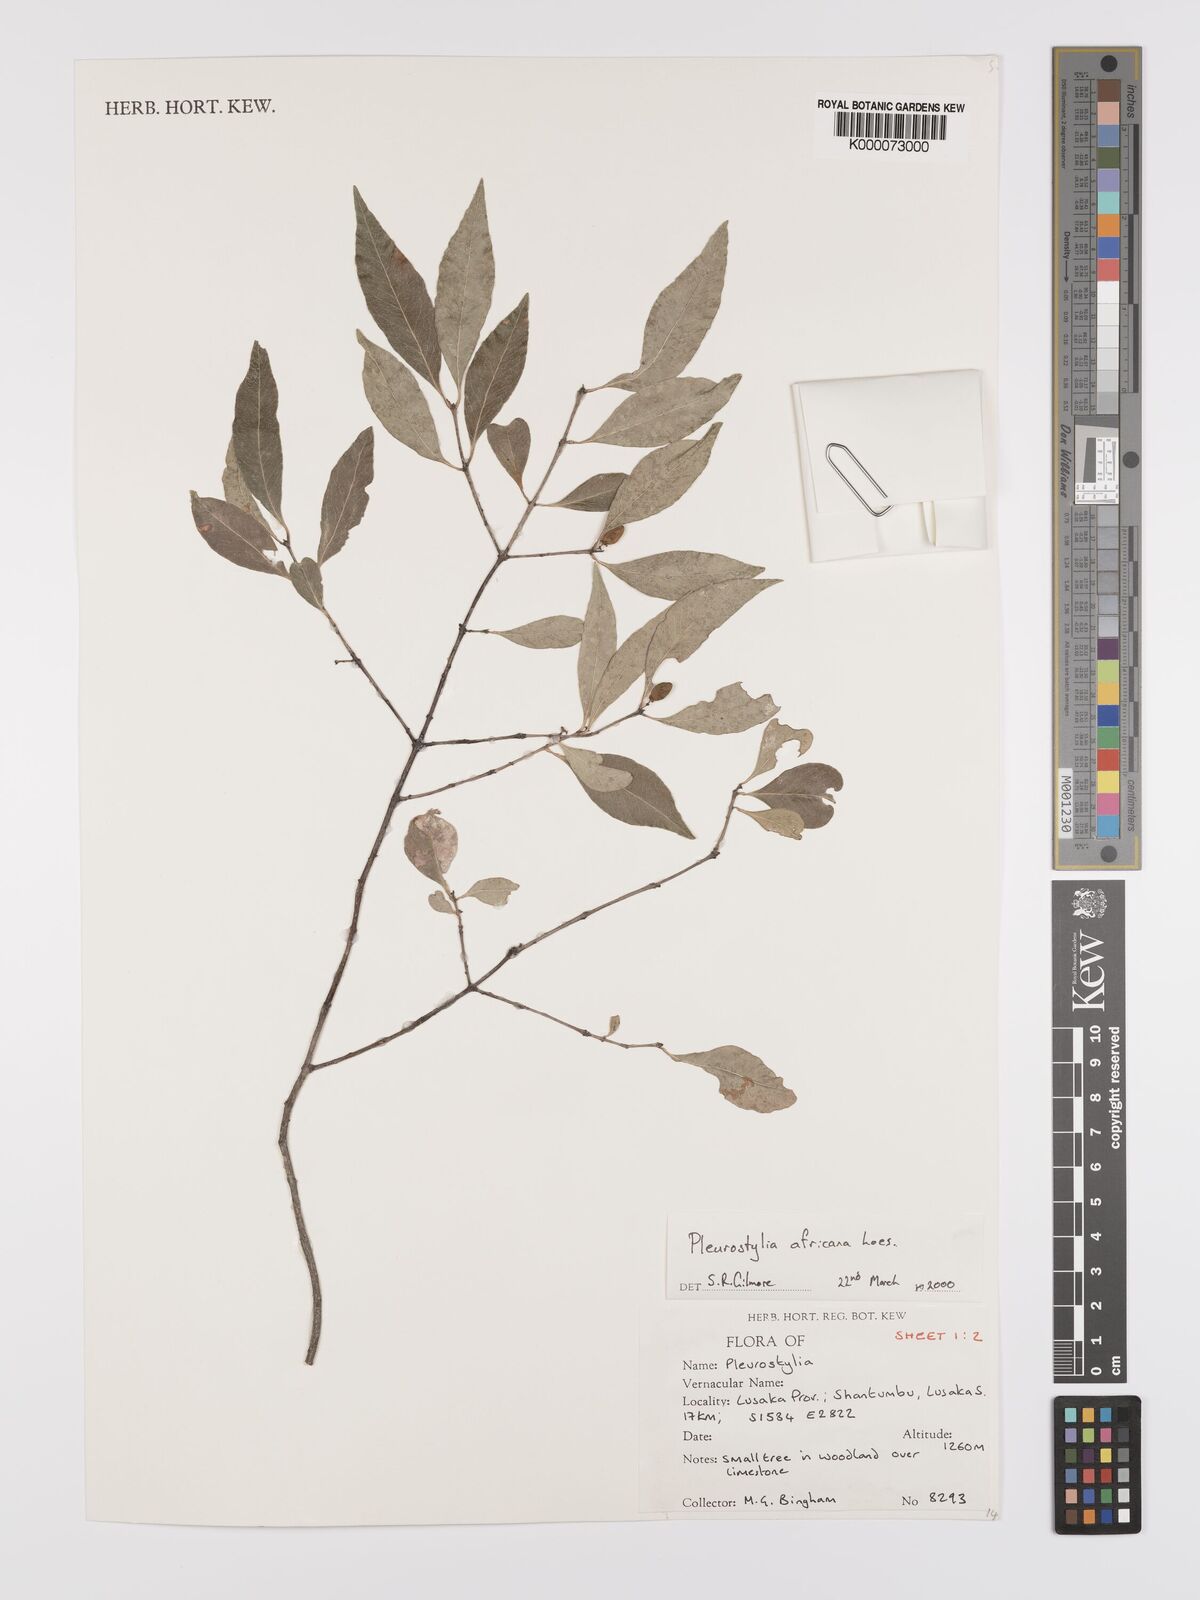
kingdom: Plantae
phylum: Tracheophyta
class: Magnoliopsida
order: Celastrales
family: Celastraceae
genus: Pleurostylia
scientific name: Pleurostylia africana
